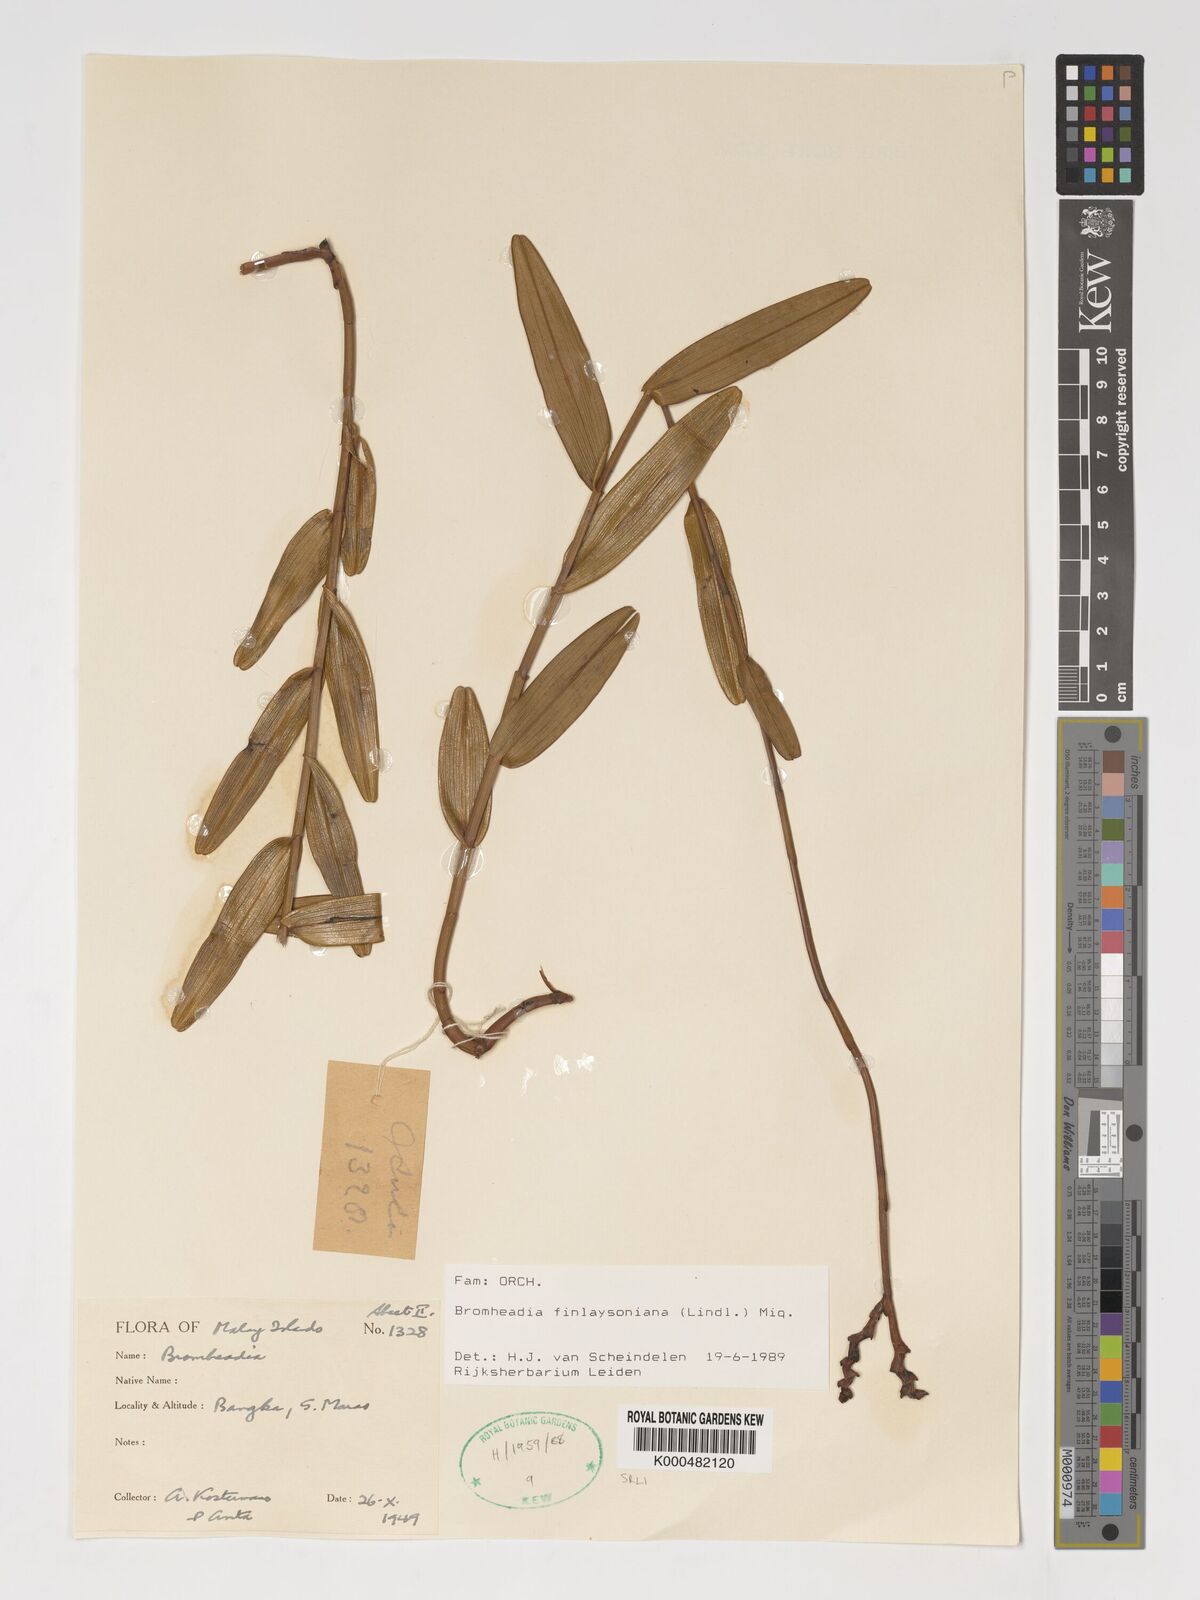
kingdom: Plantae
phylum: Tracheophyta
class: Liliopsida
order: Asparagales
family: Orchidaceae
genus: Bromheadia
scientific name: Bromheadia finlaysoniana
